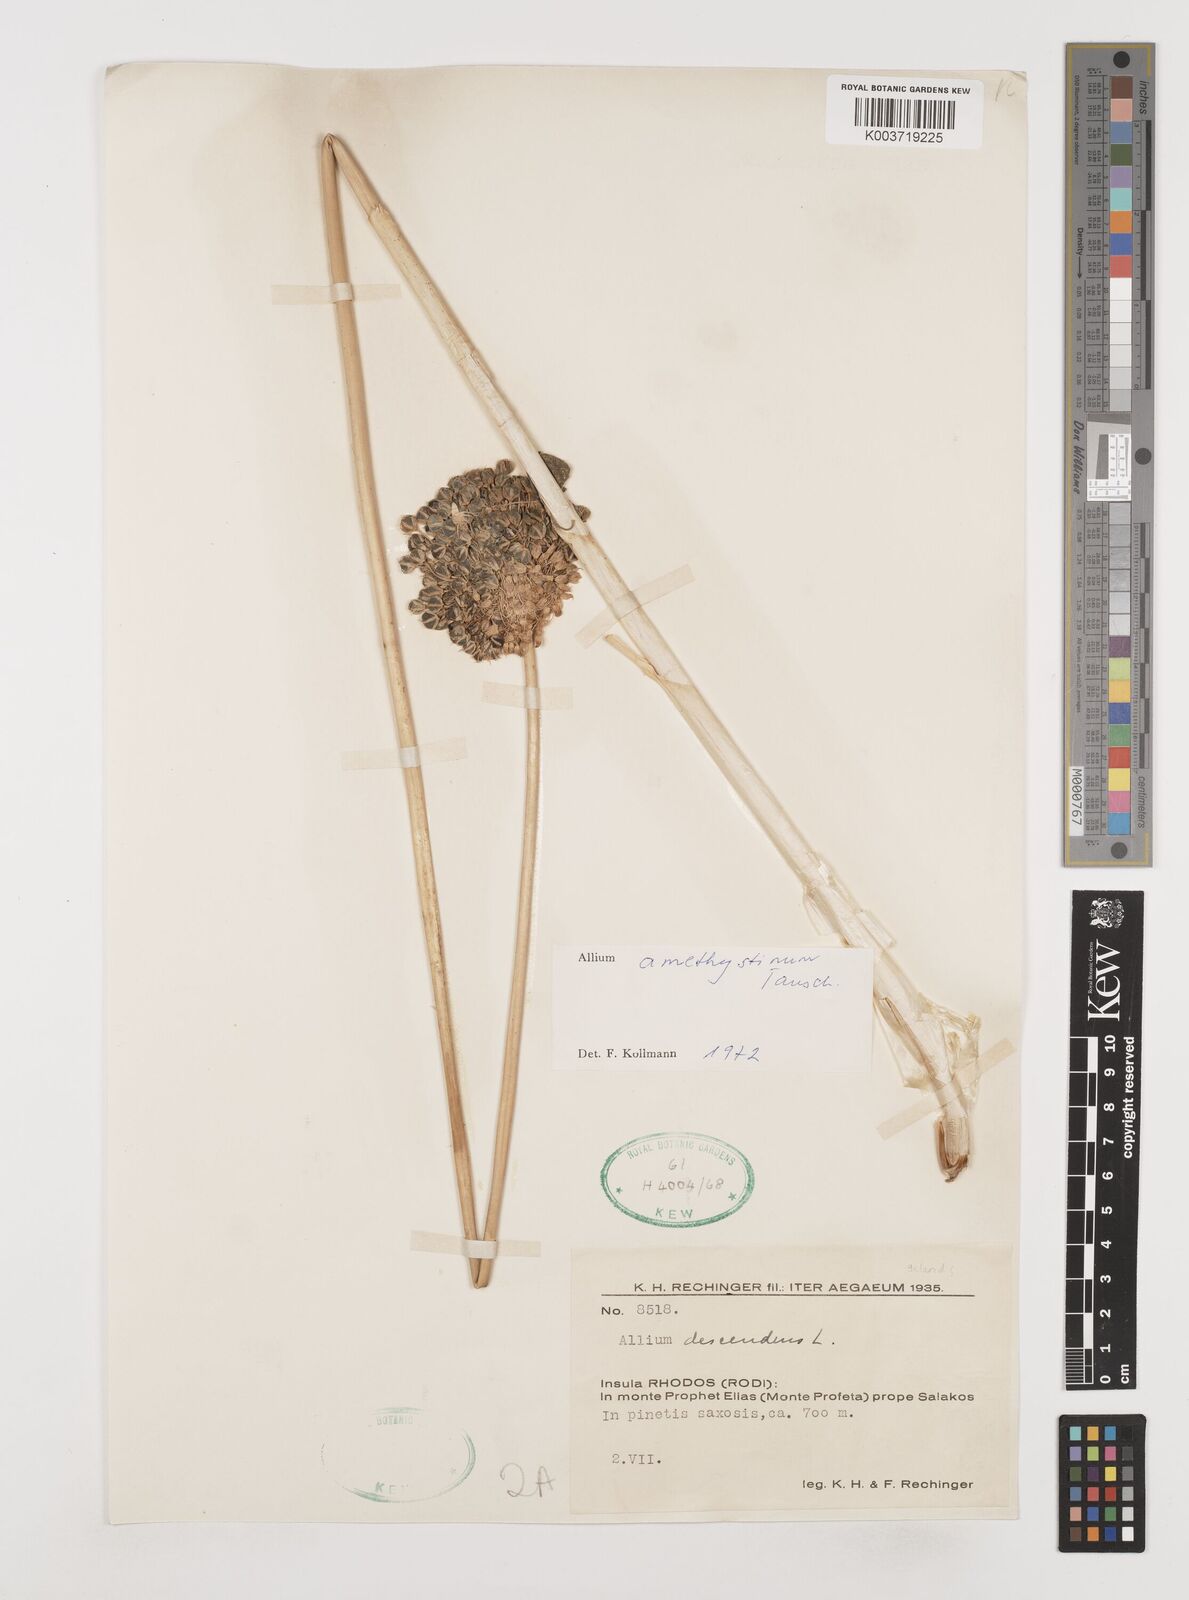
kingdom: Plantae
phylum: Tracheophyta
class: Liliopsida
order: Asparagales
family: Amaryllidaceae
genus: Allium
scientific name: Allium amethystinum
